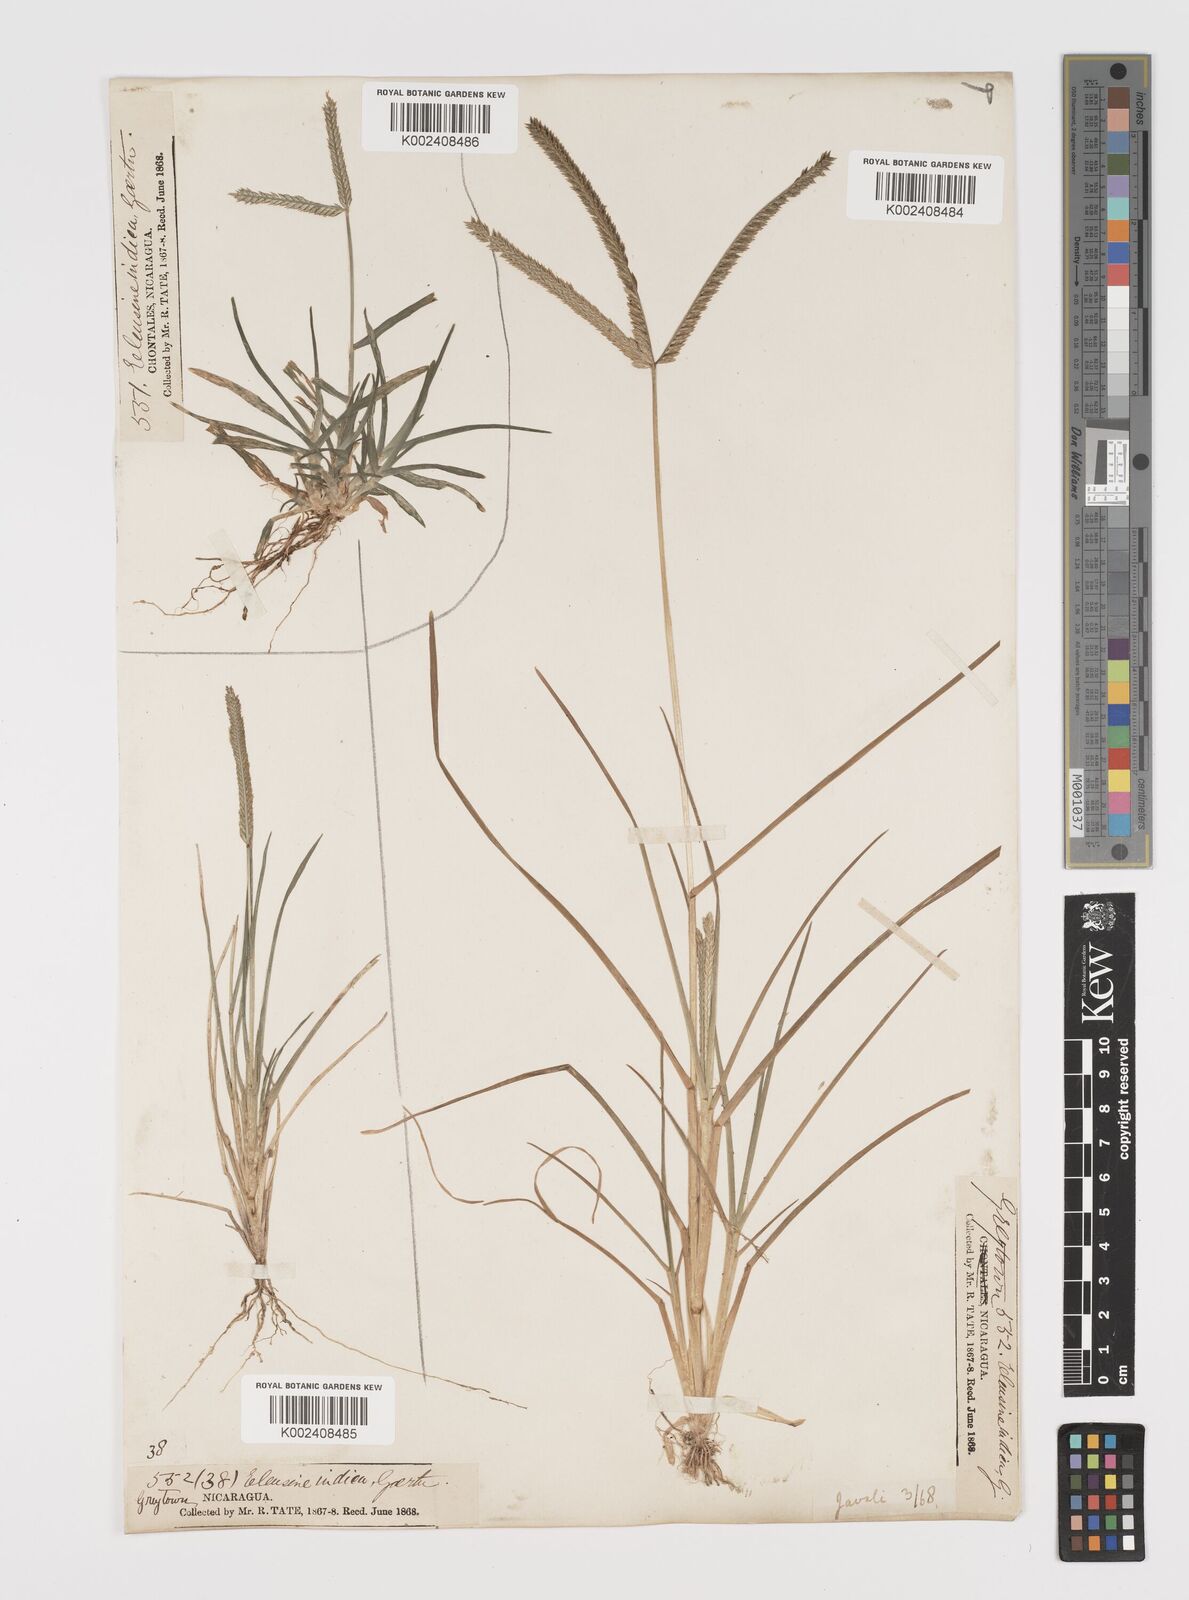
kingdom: Plantae
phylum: Tracheophyta
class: Liliopsida
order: Poales
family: Poaceae
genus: Eleusine
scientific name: Eleusine indica
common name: Yard-grass
